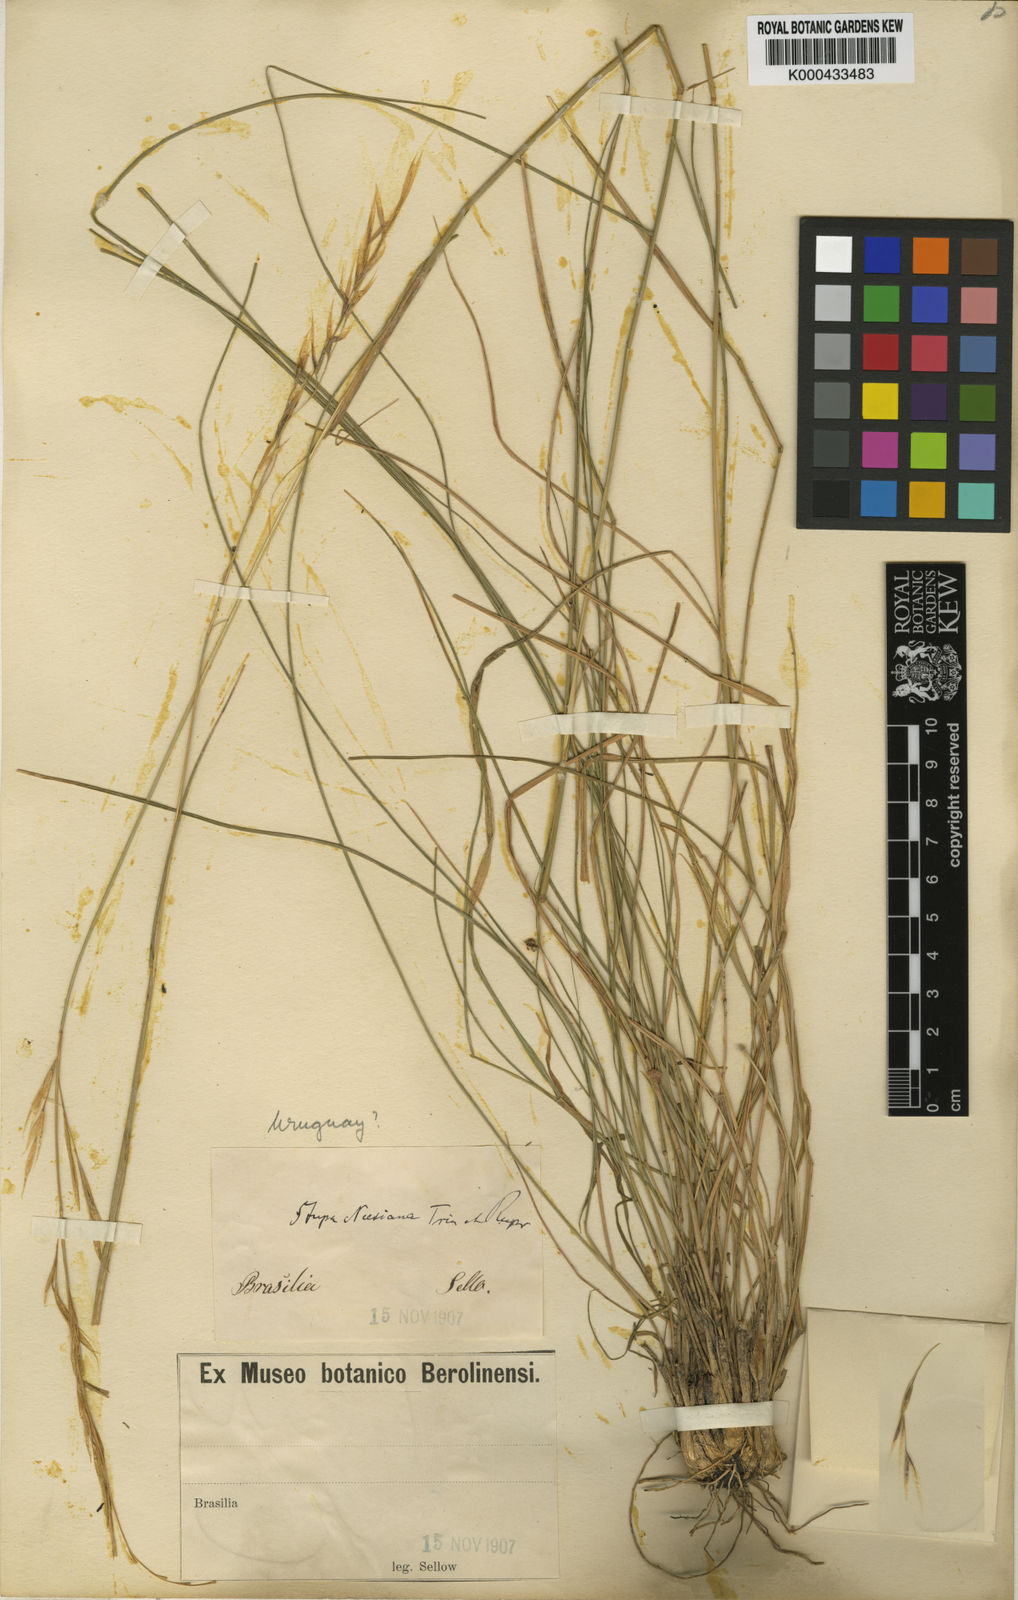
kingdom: Plantae
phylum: Tracheophyta
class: Liliopsida
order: Poales
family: Poaceae
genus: Nassella
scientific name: Nassella neesiana
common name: American needle-grass
